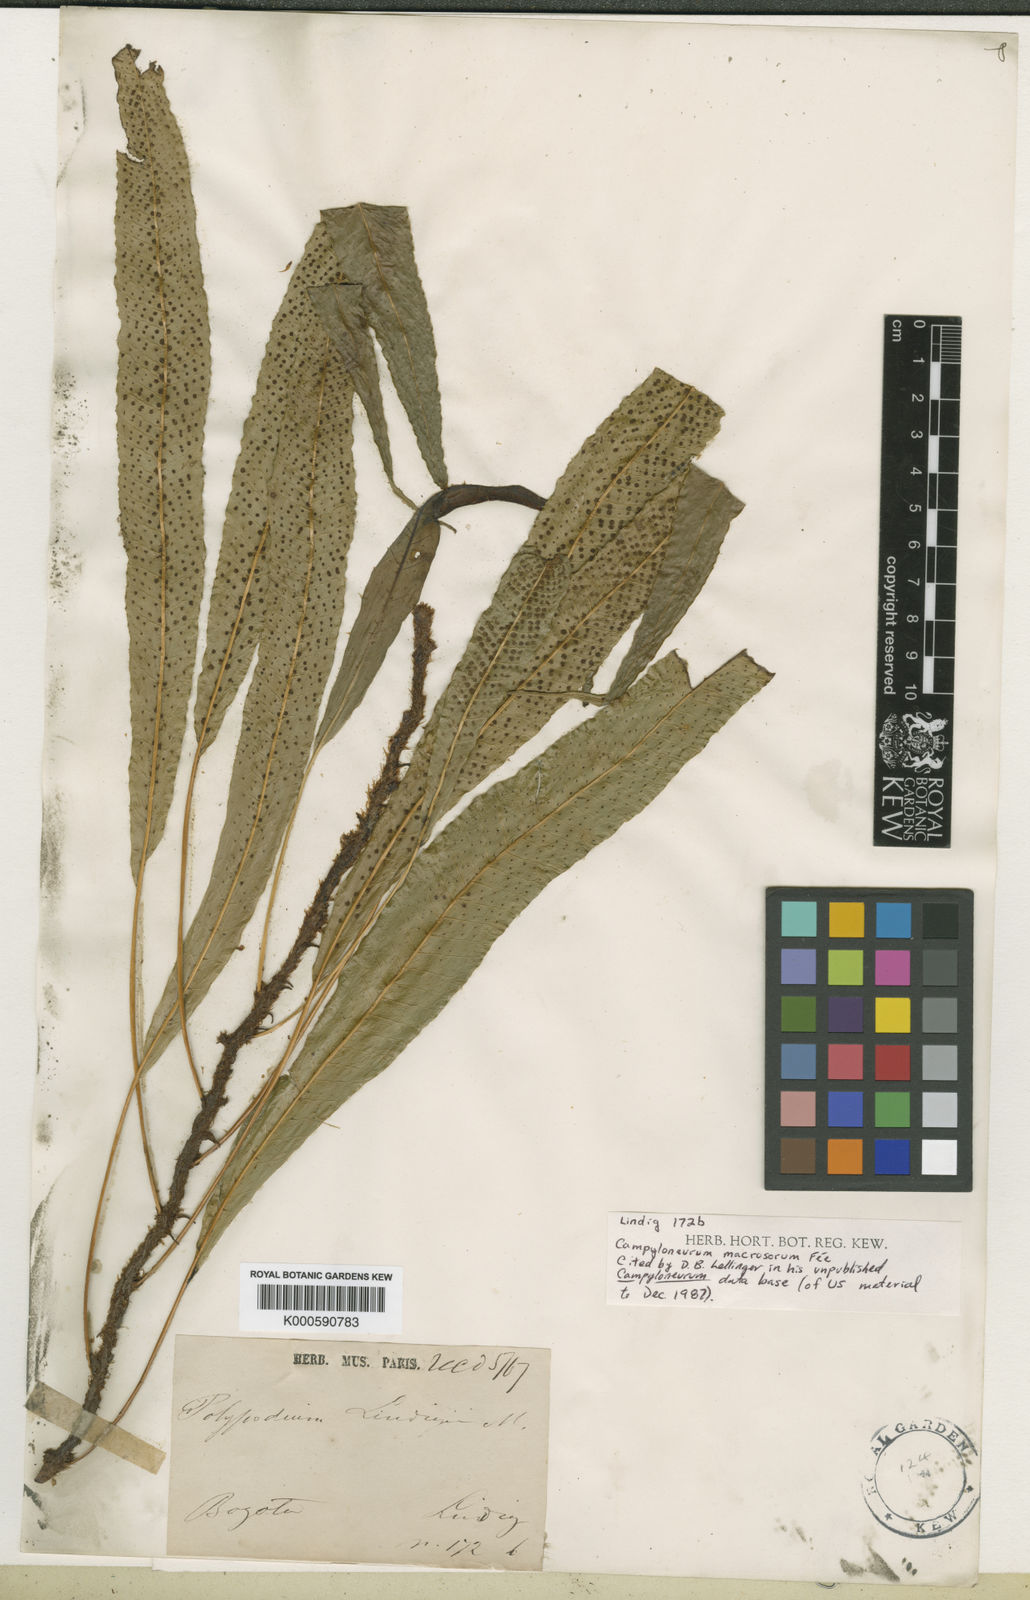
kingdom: Plantae
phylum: Tracheophyta
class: Polypodiopsida
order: Polypodiales
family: Polypodiaceae
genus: Campyloneurum
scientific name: Campyloneurum
